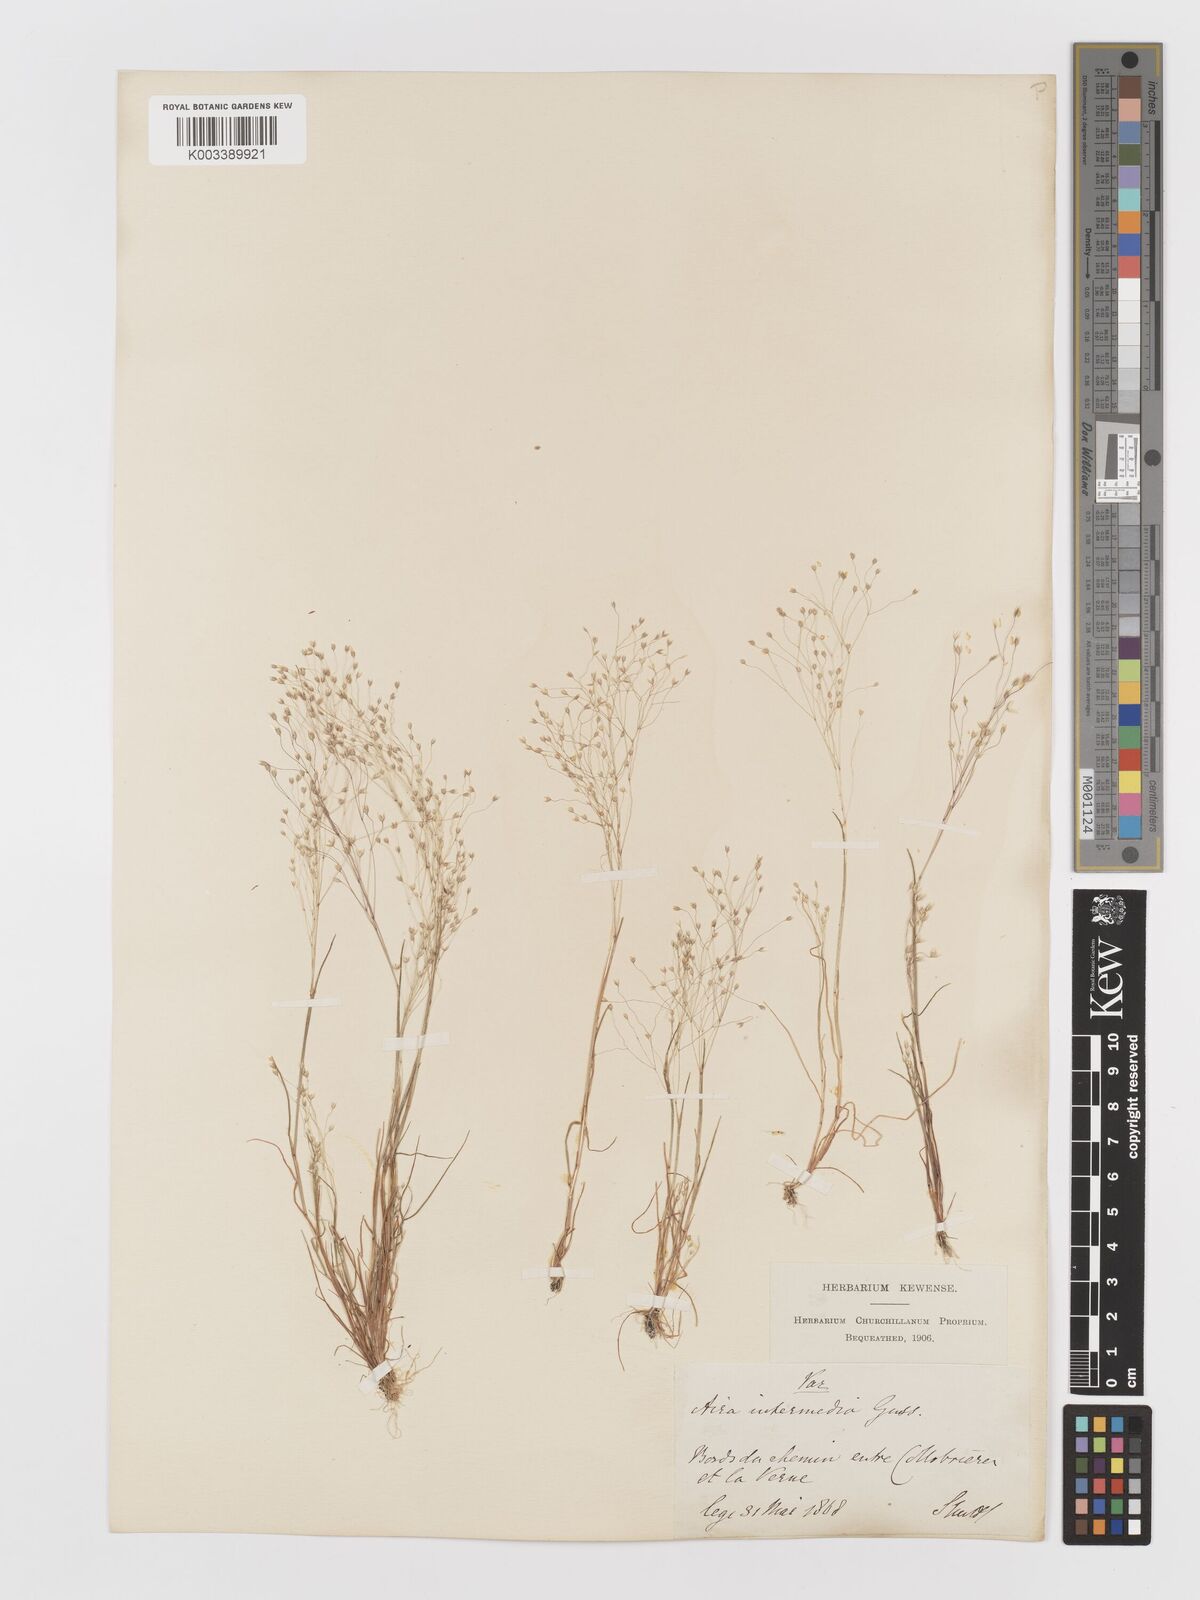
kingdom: Plantae
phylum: Tracheophyta
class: Liliopsida
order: Poales
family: Poaceae
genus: Aira
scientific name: Aira
